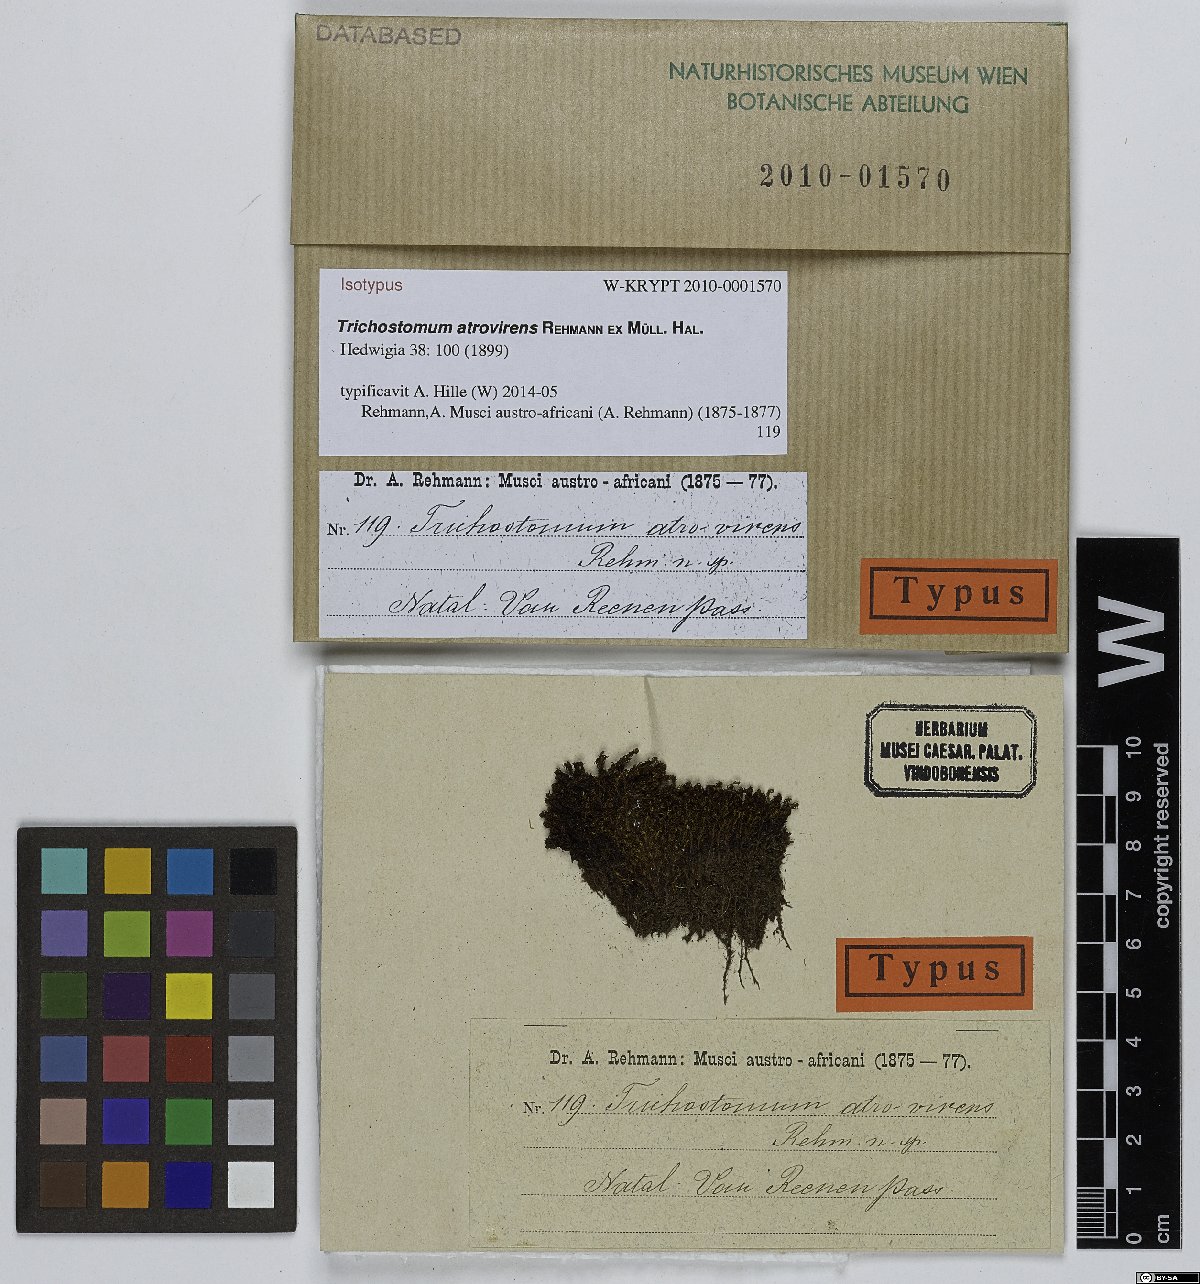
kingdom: Plantae
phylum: Bryophyta
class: Bryopsida
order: Pottiales
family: Pottiaceae
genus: Hyophila
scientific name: Hyophila involuta
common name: Hyophila moss
